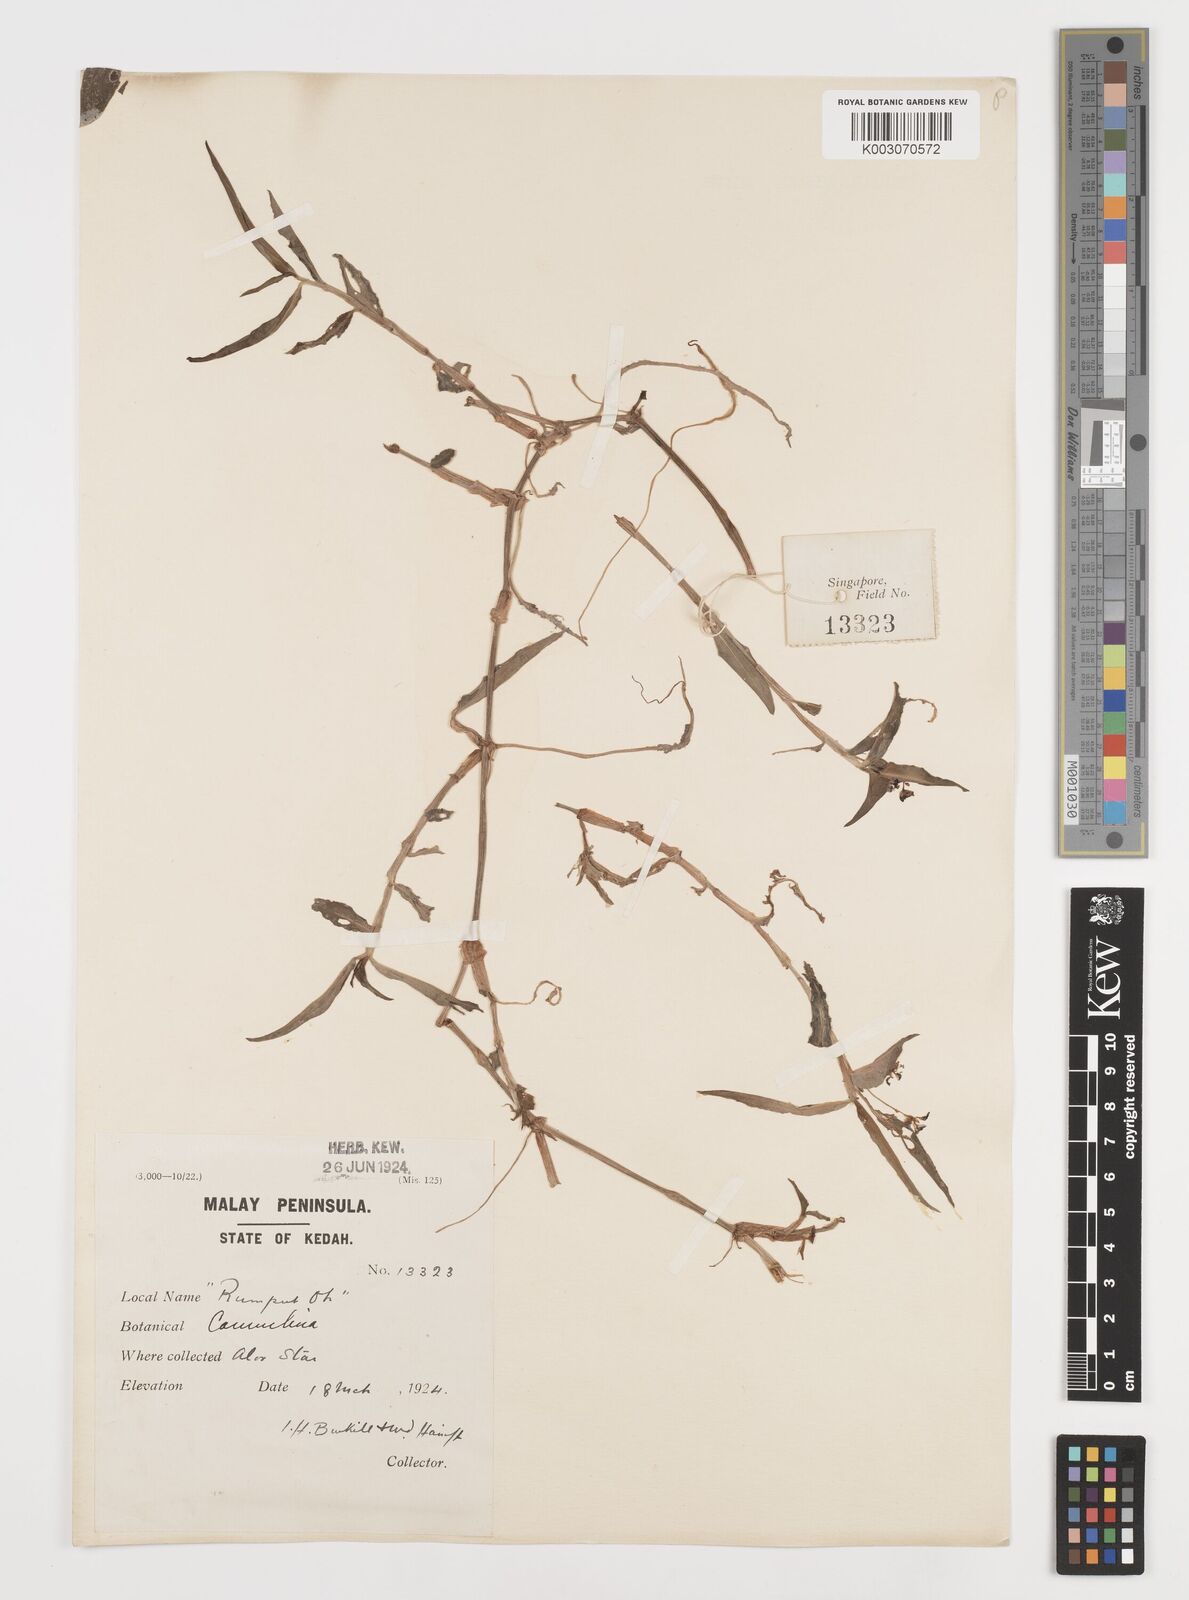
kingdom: Plantae
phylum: Tracheophyta
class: Liliopsida
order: Commelinales
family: Commelinaceae
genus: Commelina
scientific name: Commelina
